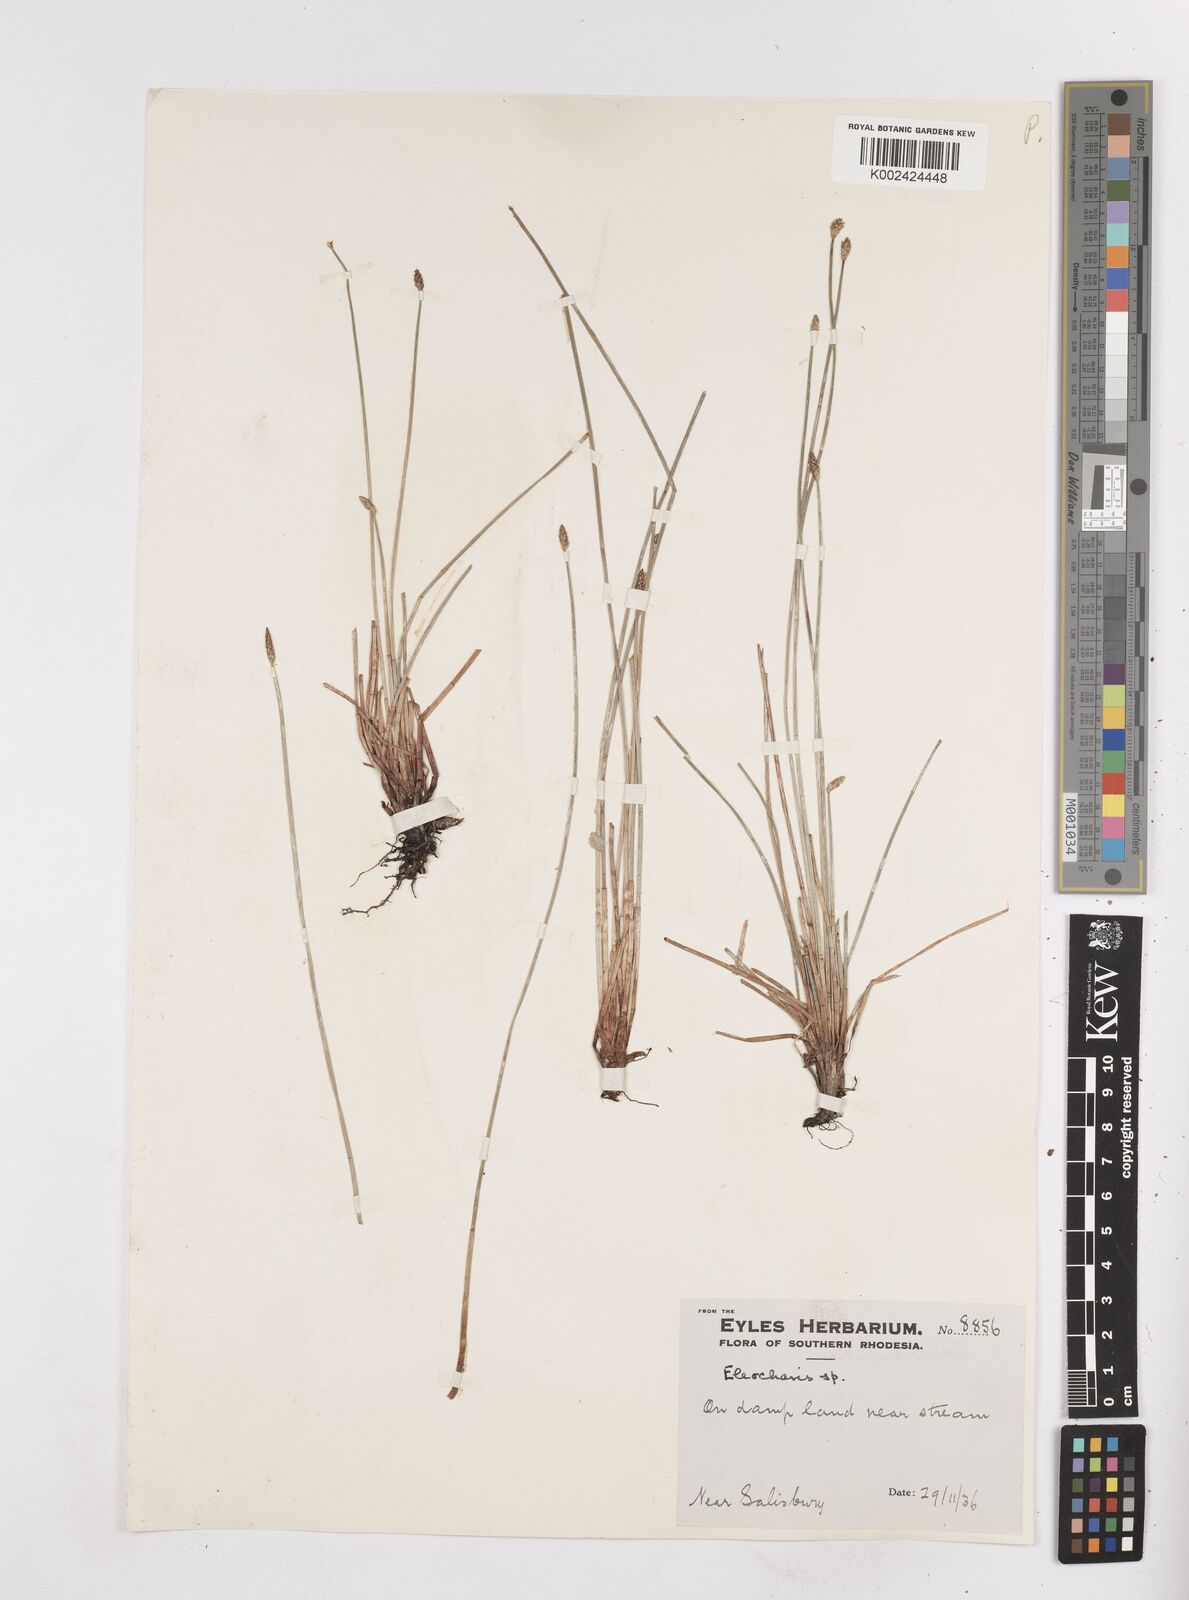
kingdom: Plantae
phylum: Tracheophyta
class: Liliopsida
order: Poales
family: Cyperaceae
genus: Eleocharis
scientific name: Eleocharis
